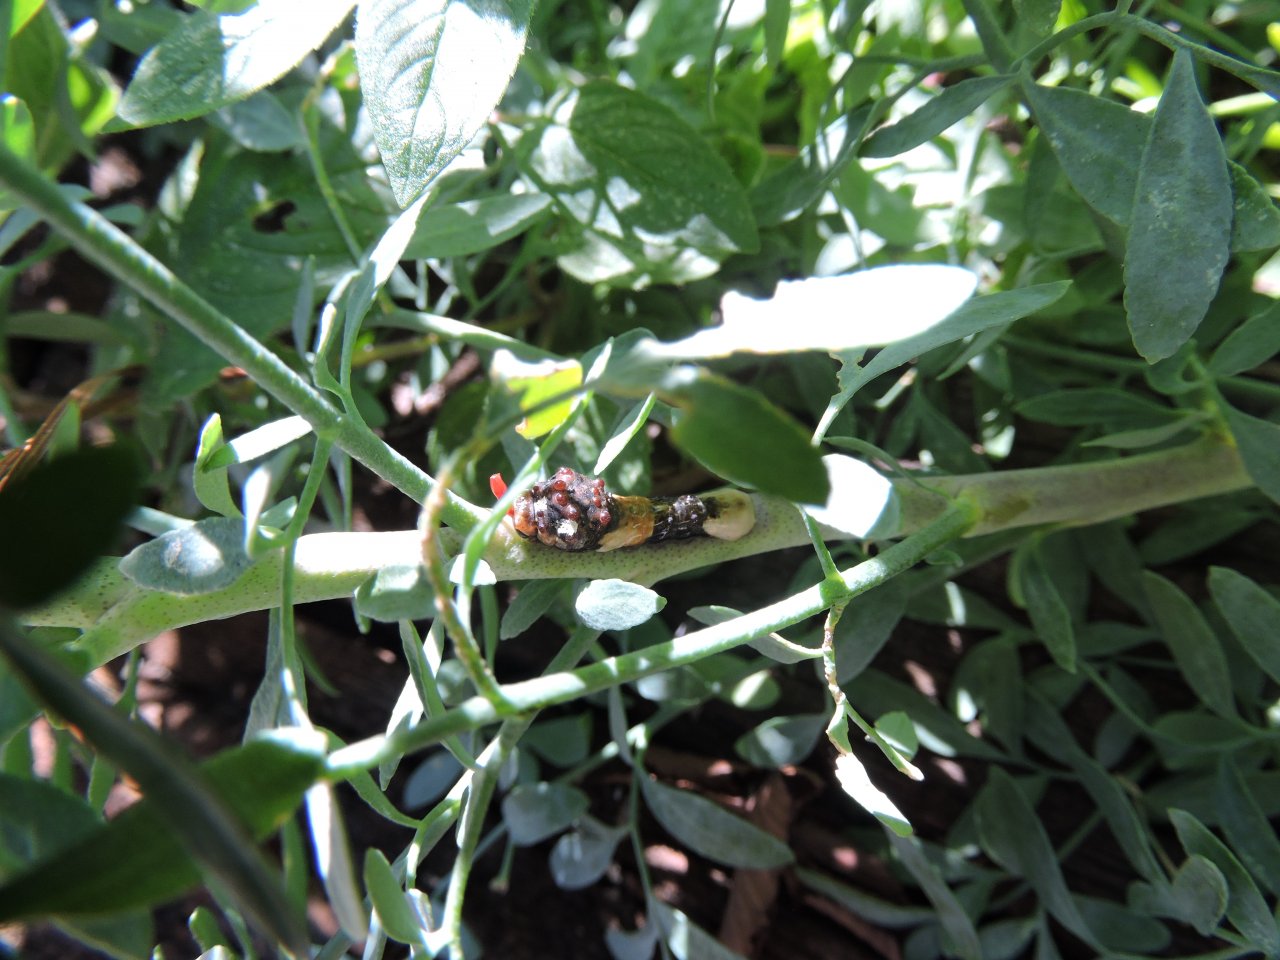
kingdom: Animalia
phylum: Arthropoda
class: Insecta
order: Lepidoptera
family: Papilionidae
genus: Papilio
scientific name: Papilio cresphontes
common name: Eastern Giant Swallowtail
